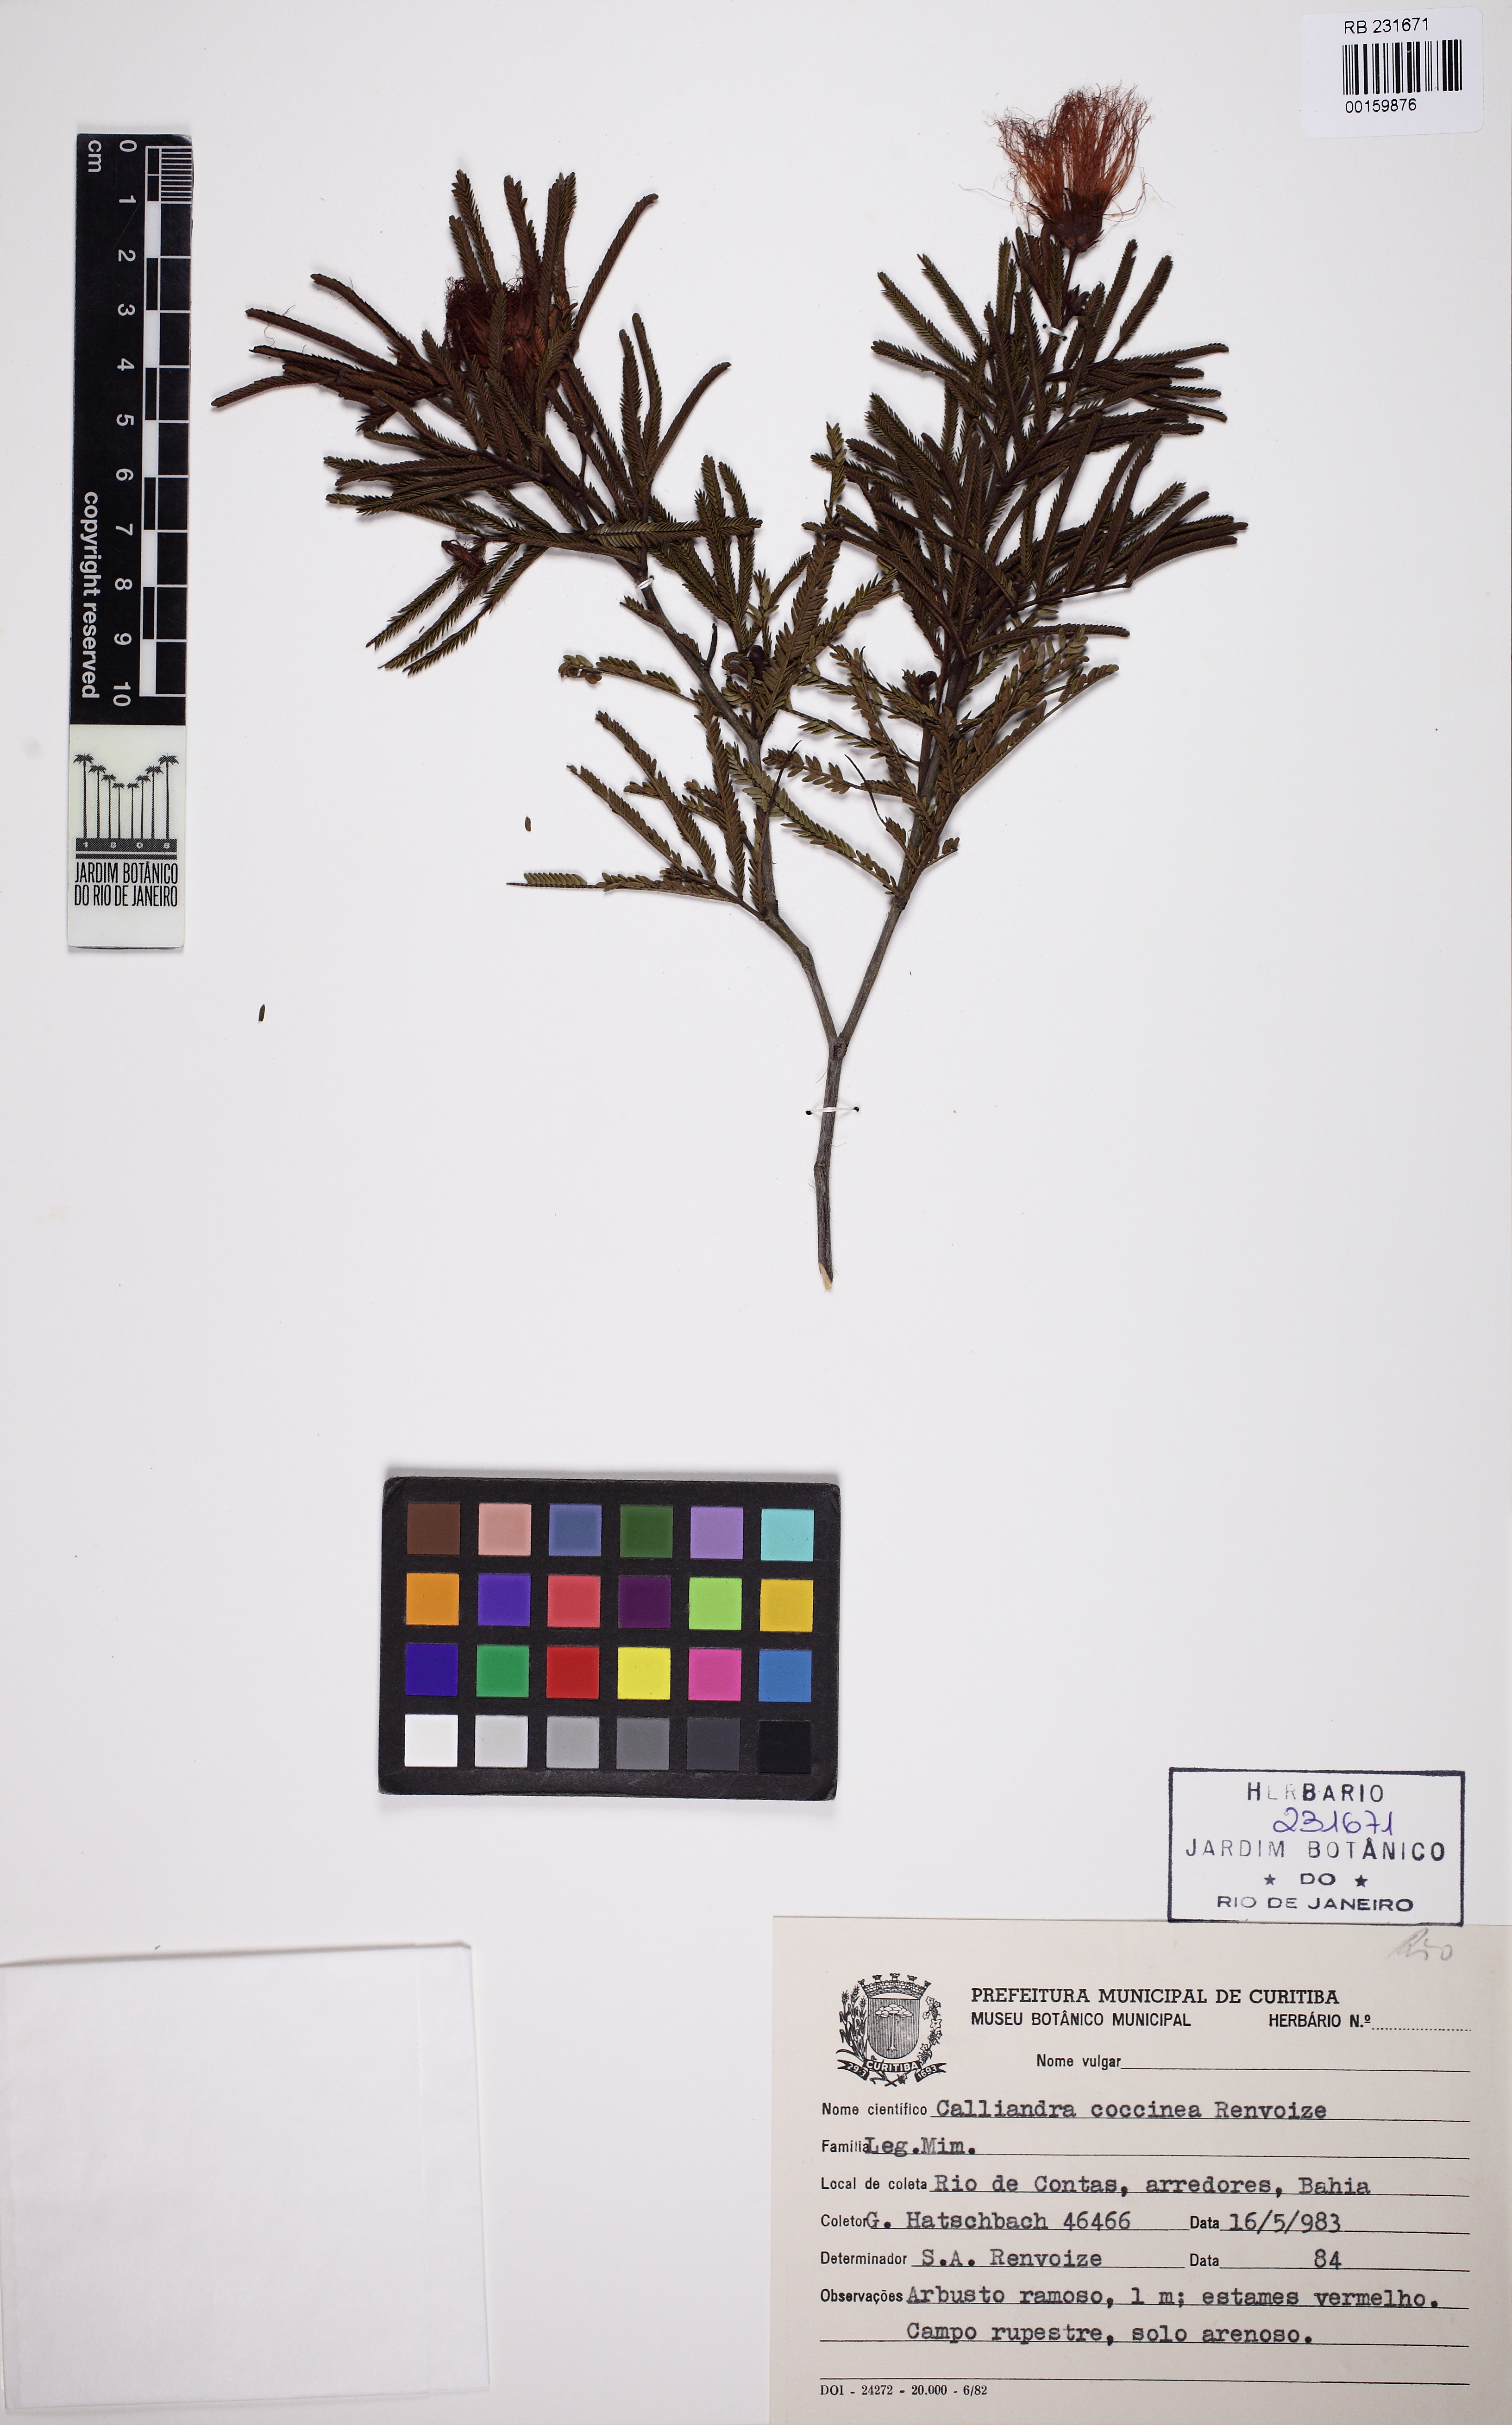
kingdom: Plantae
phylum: Tracheophyta
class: Magnoliopsida
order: Fabales
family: Fabaceae
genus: Calliandra
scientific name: Calliandra coccinea
